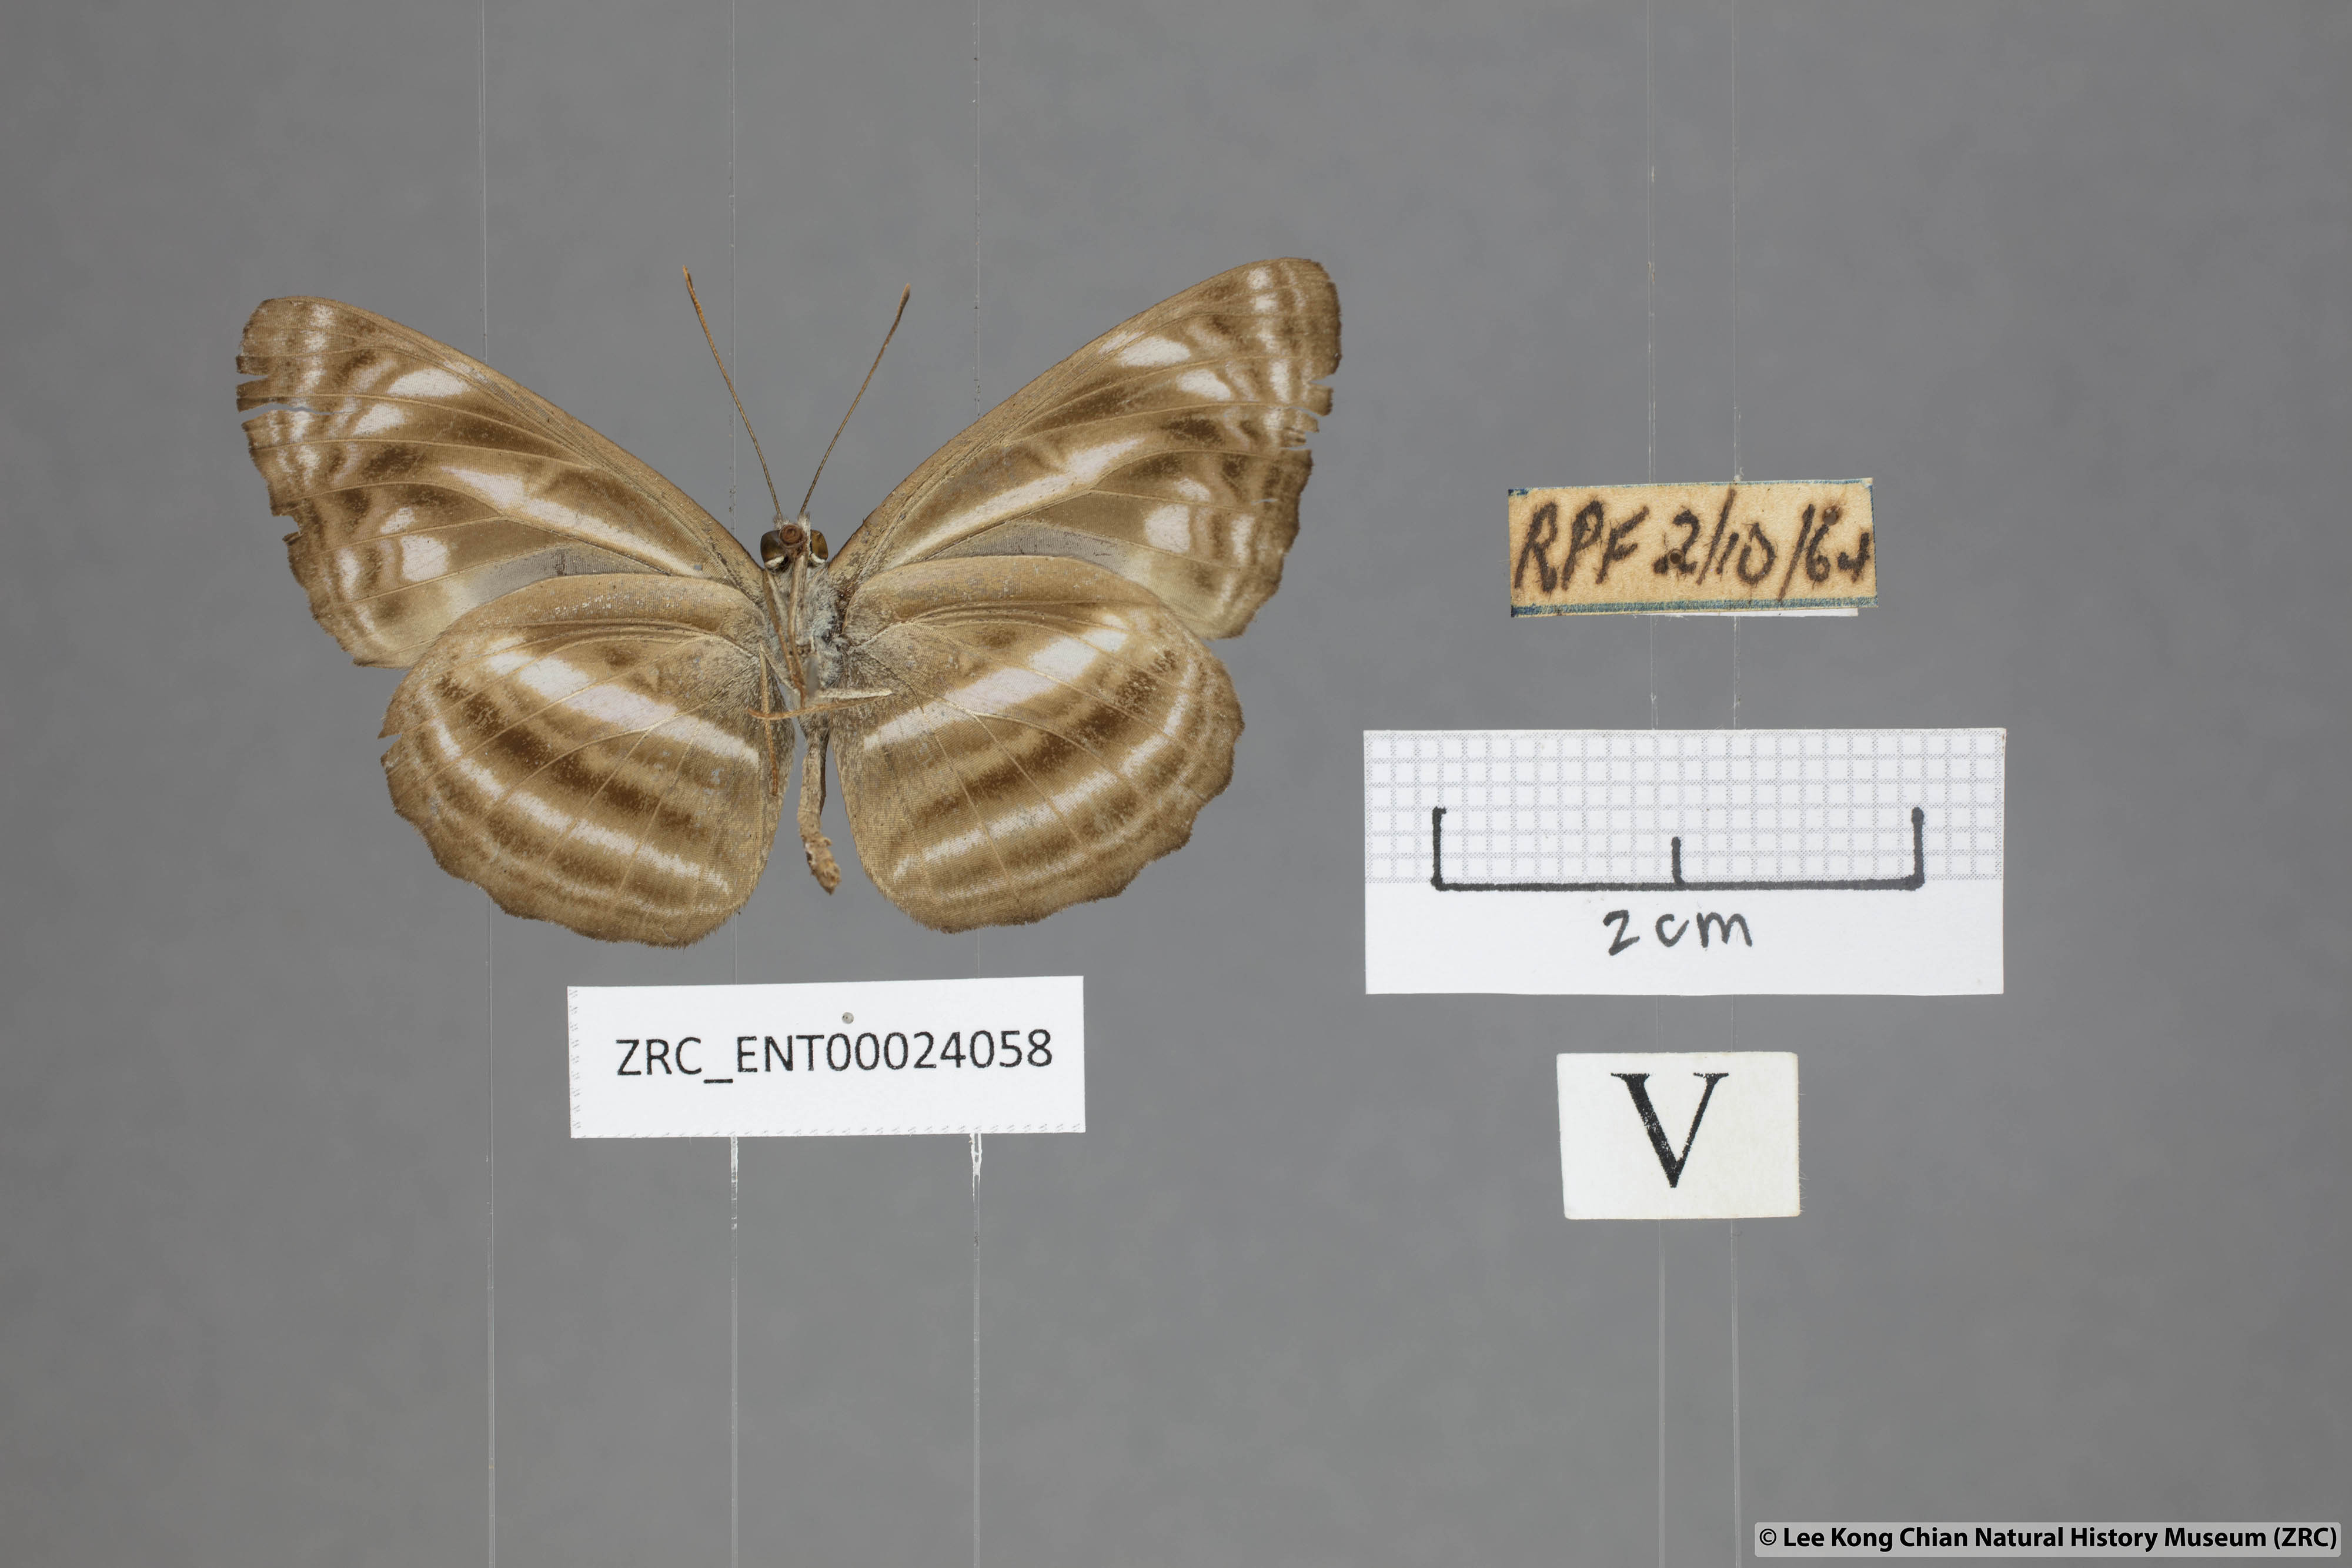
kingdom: Animalia
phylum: Arthropoda
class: Insecta
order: Lepidoptera
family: Nymphalidae
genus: Neptis
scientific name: Neptis omeroda
